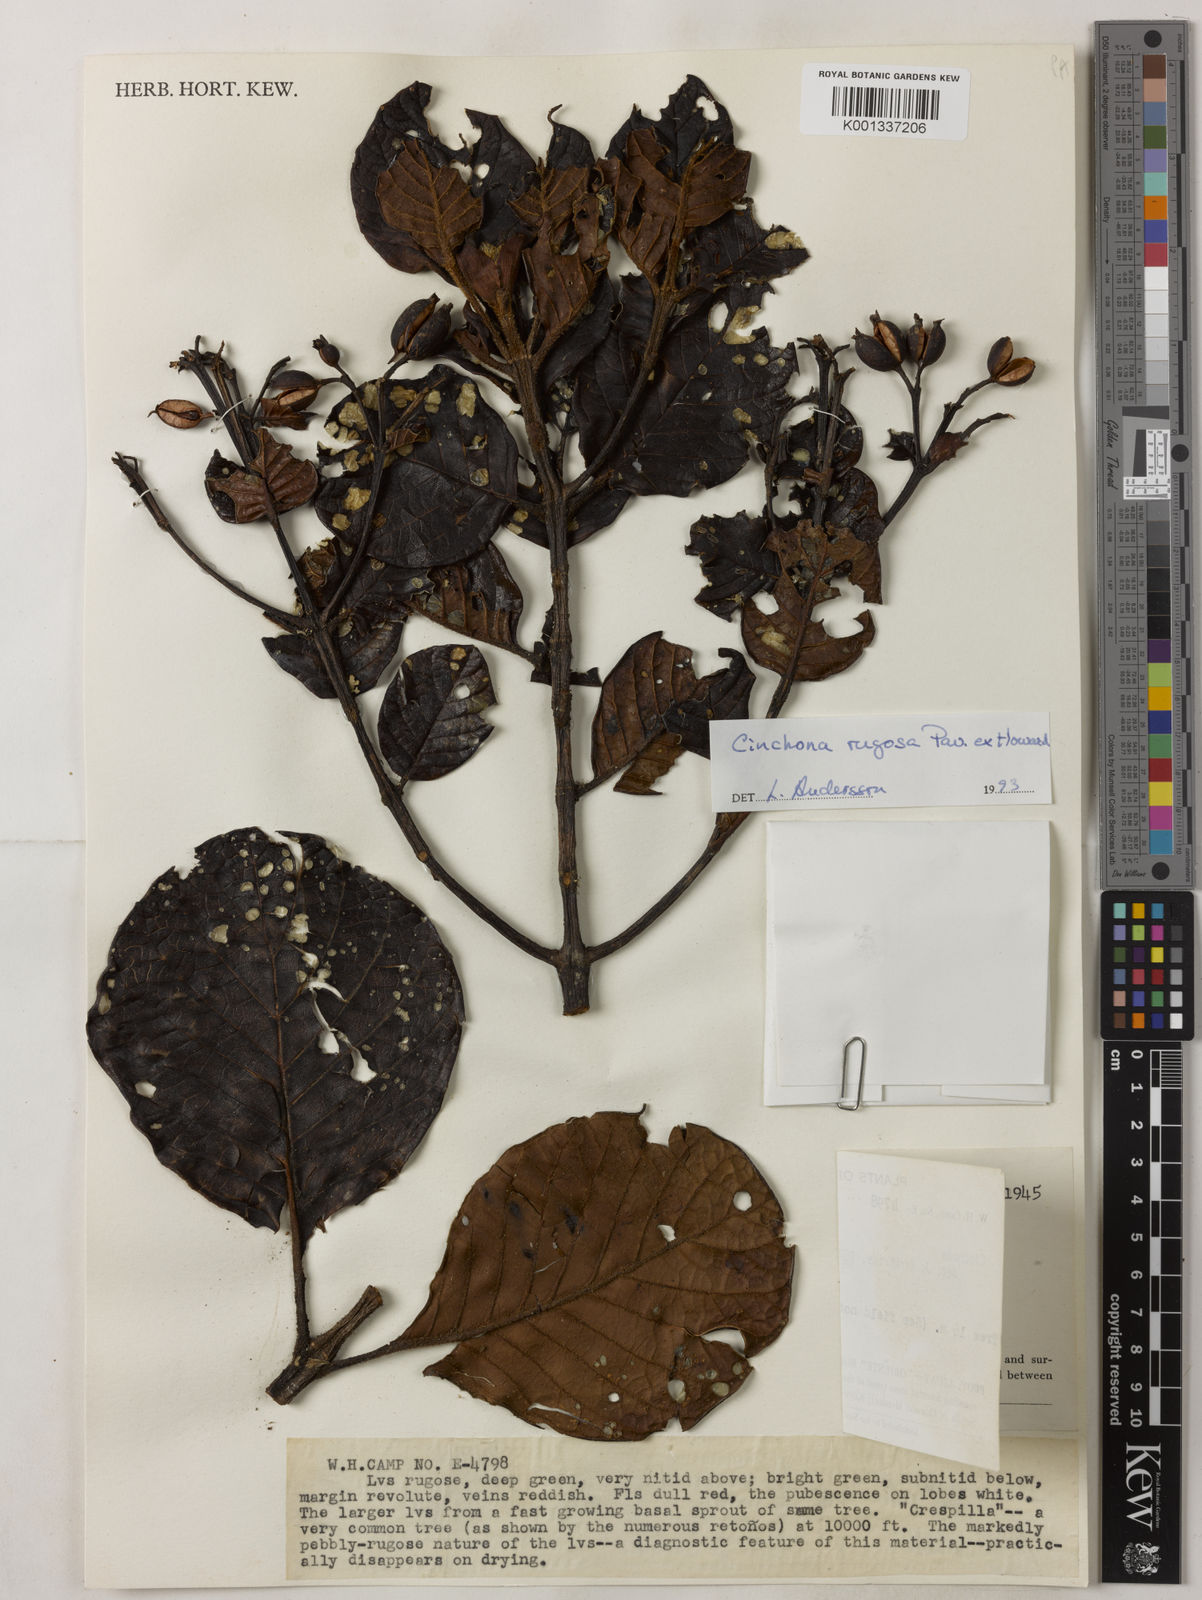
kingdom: Plantae
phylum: Tracheophyta
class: Magnoliopsida
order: Gentianales
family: Rubiaceae
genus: Cinchona
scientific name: Cinchona rugosa
